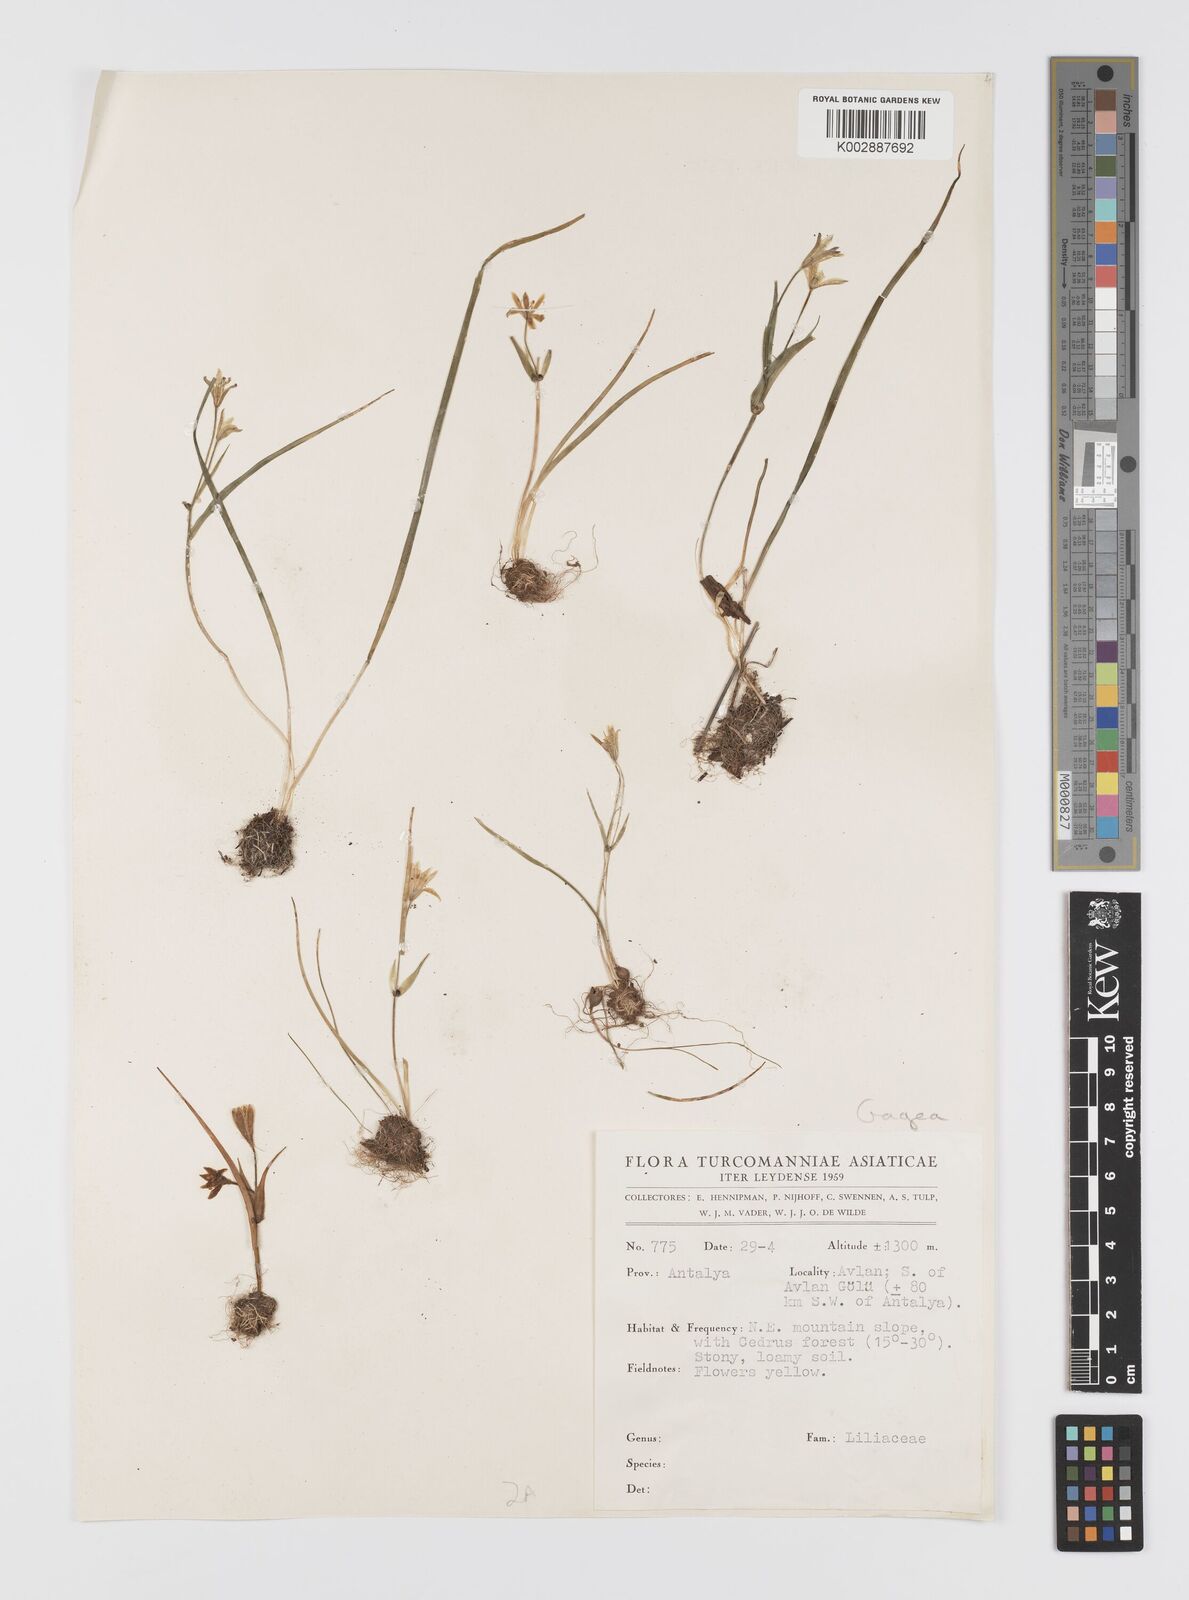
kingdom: Plantae
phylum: Tracheophyta
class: Liliopsida
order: Liliales
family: Liliaceae
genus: Gagea
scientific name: Gagea dubia
